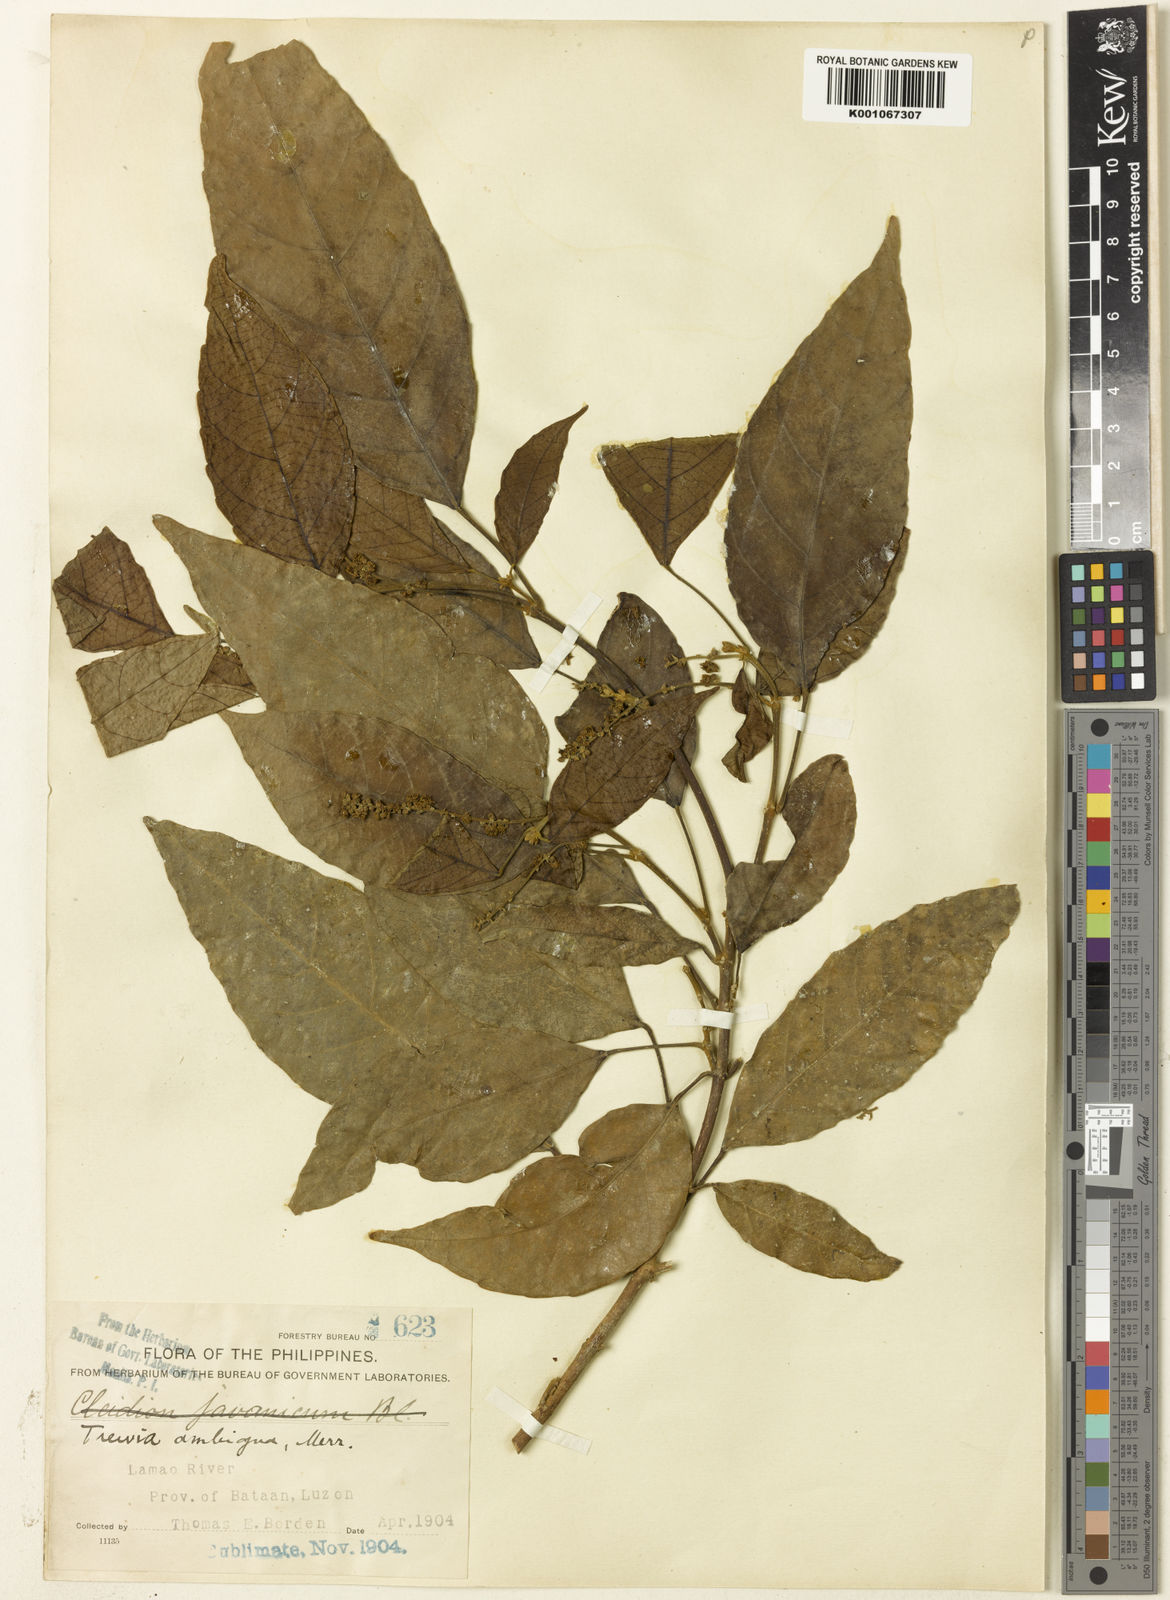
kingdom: Plantae
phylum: Tracheophyta
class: Magnoliopsida
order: Malpighiales
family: Euphorbiaceae
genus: Mallotus
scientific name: Mallotus
